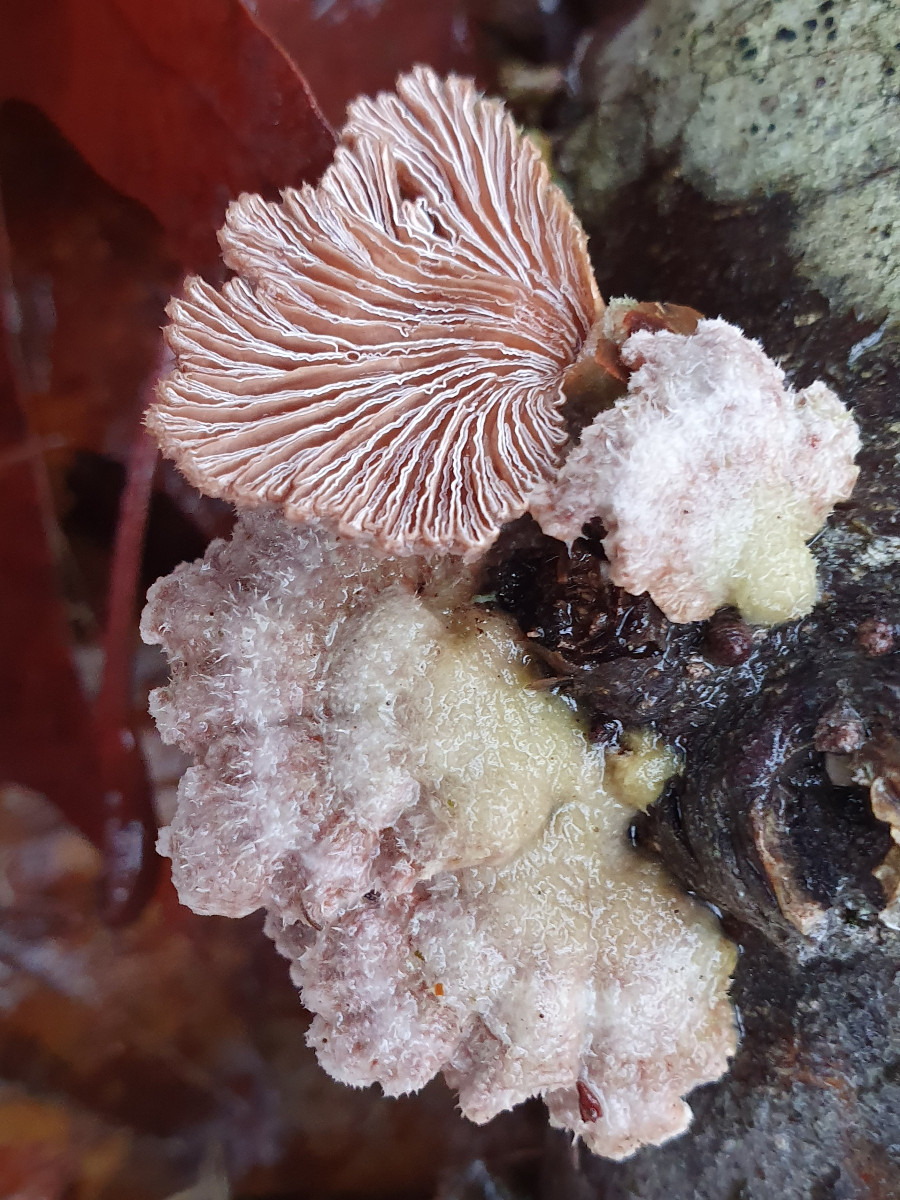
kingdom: Fungi
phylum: Basidiomycota
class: Agaricomycetes
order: Agaricales
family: Schizophyllaceae
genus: Schizophyllum
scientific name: Schizophyllum commune
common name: kløvblad
